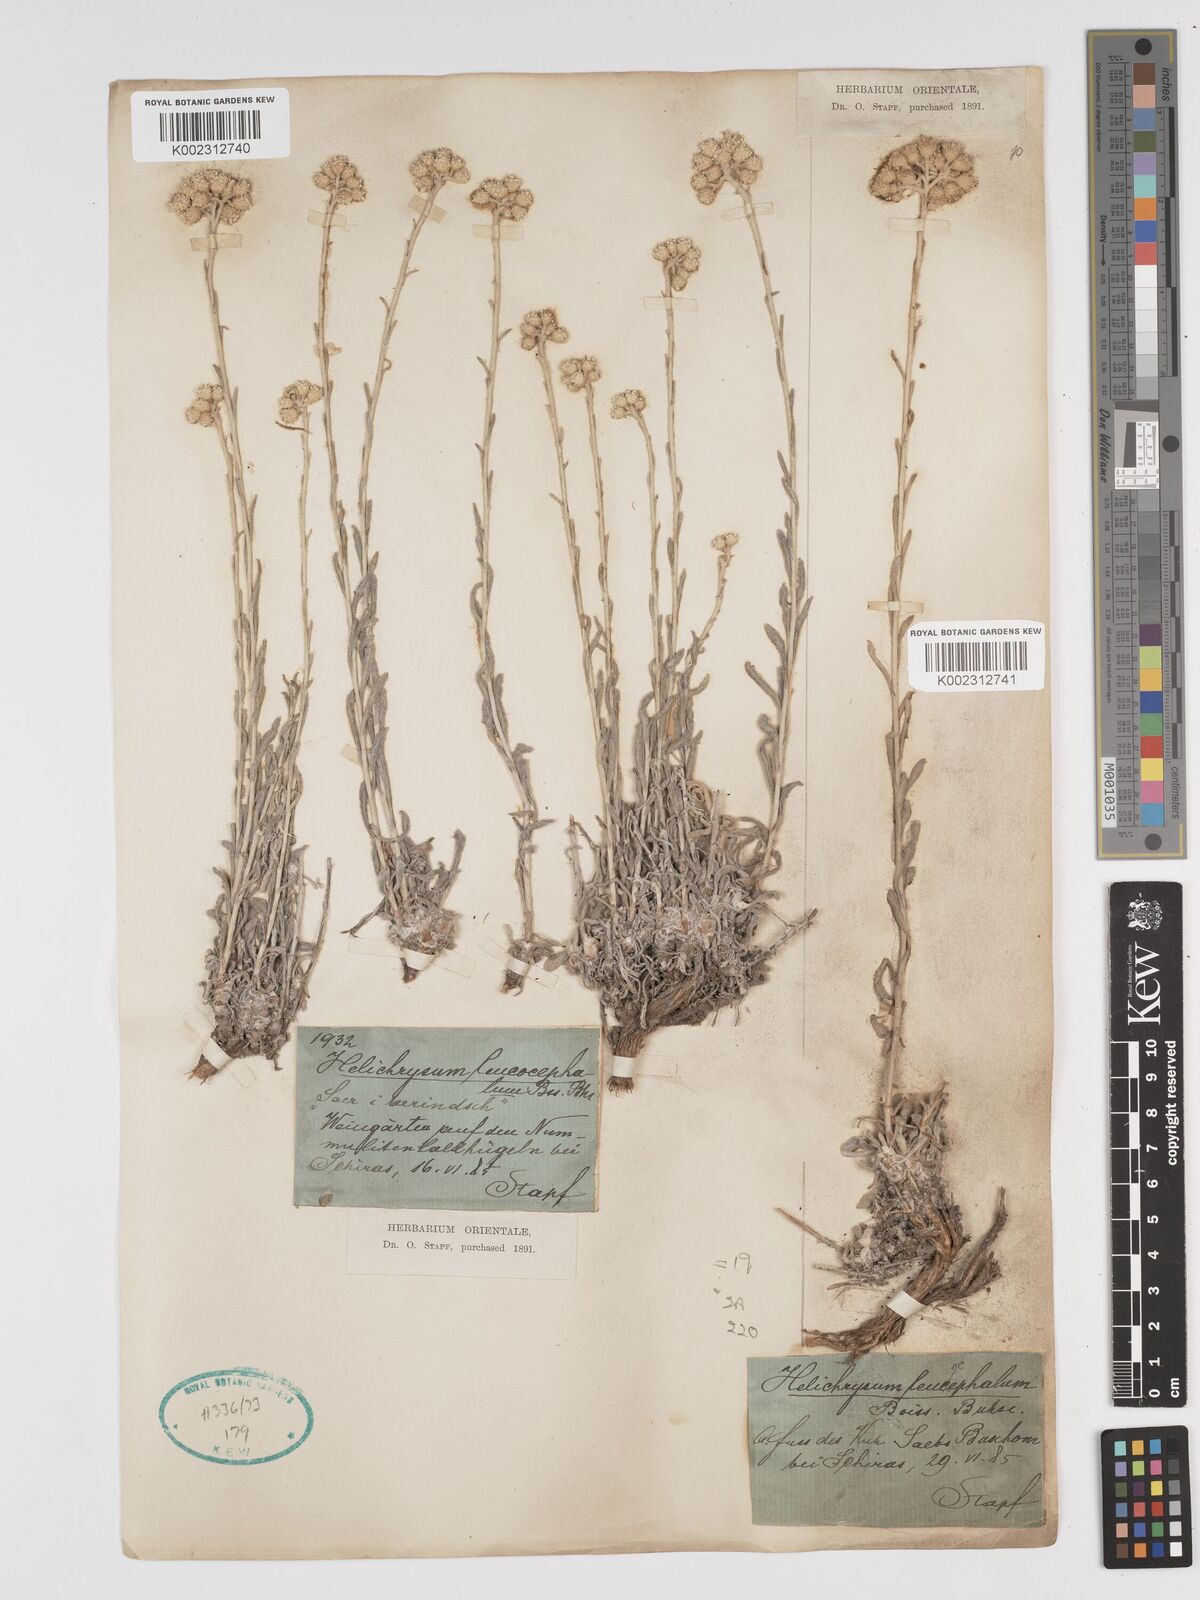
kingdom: Plantae
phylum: Tracheophyta
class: Magnoliopsida
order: Asterales
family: Asteraceae
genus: Helichrysum
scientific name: Helichrysum leucocephalum
